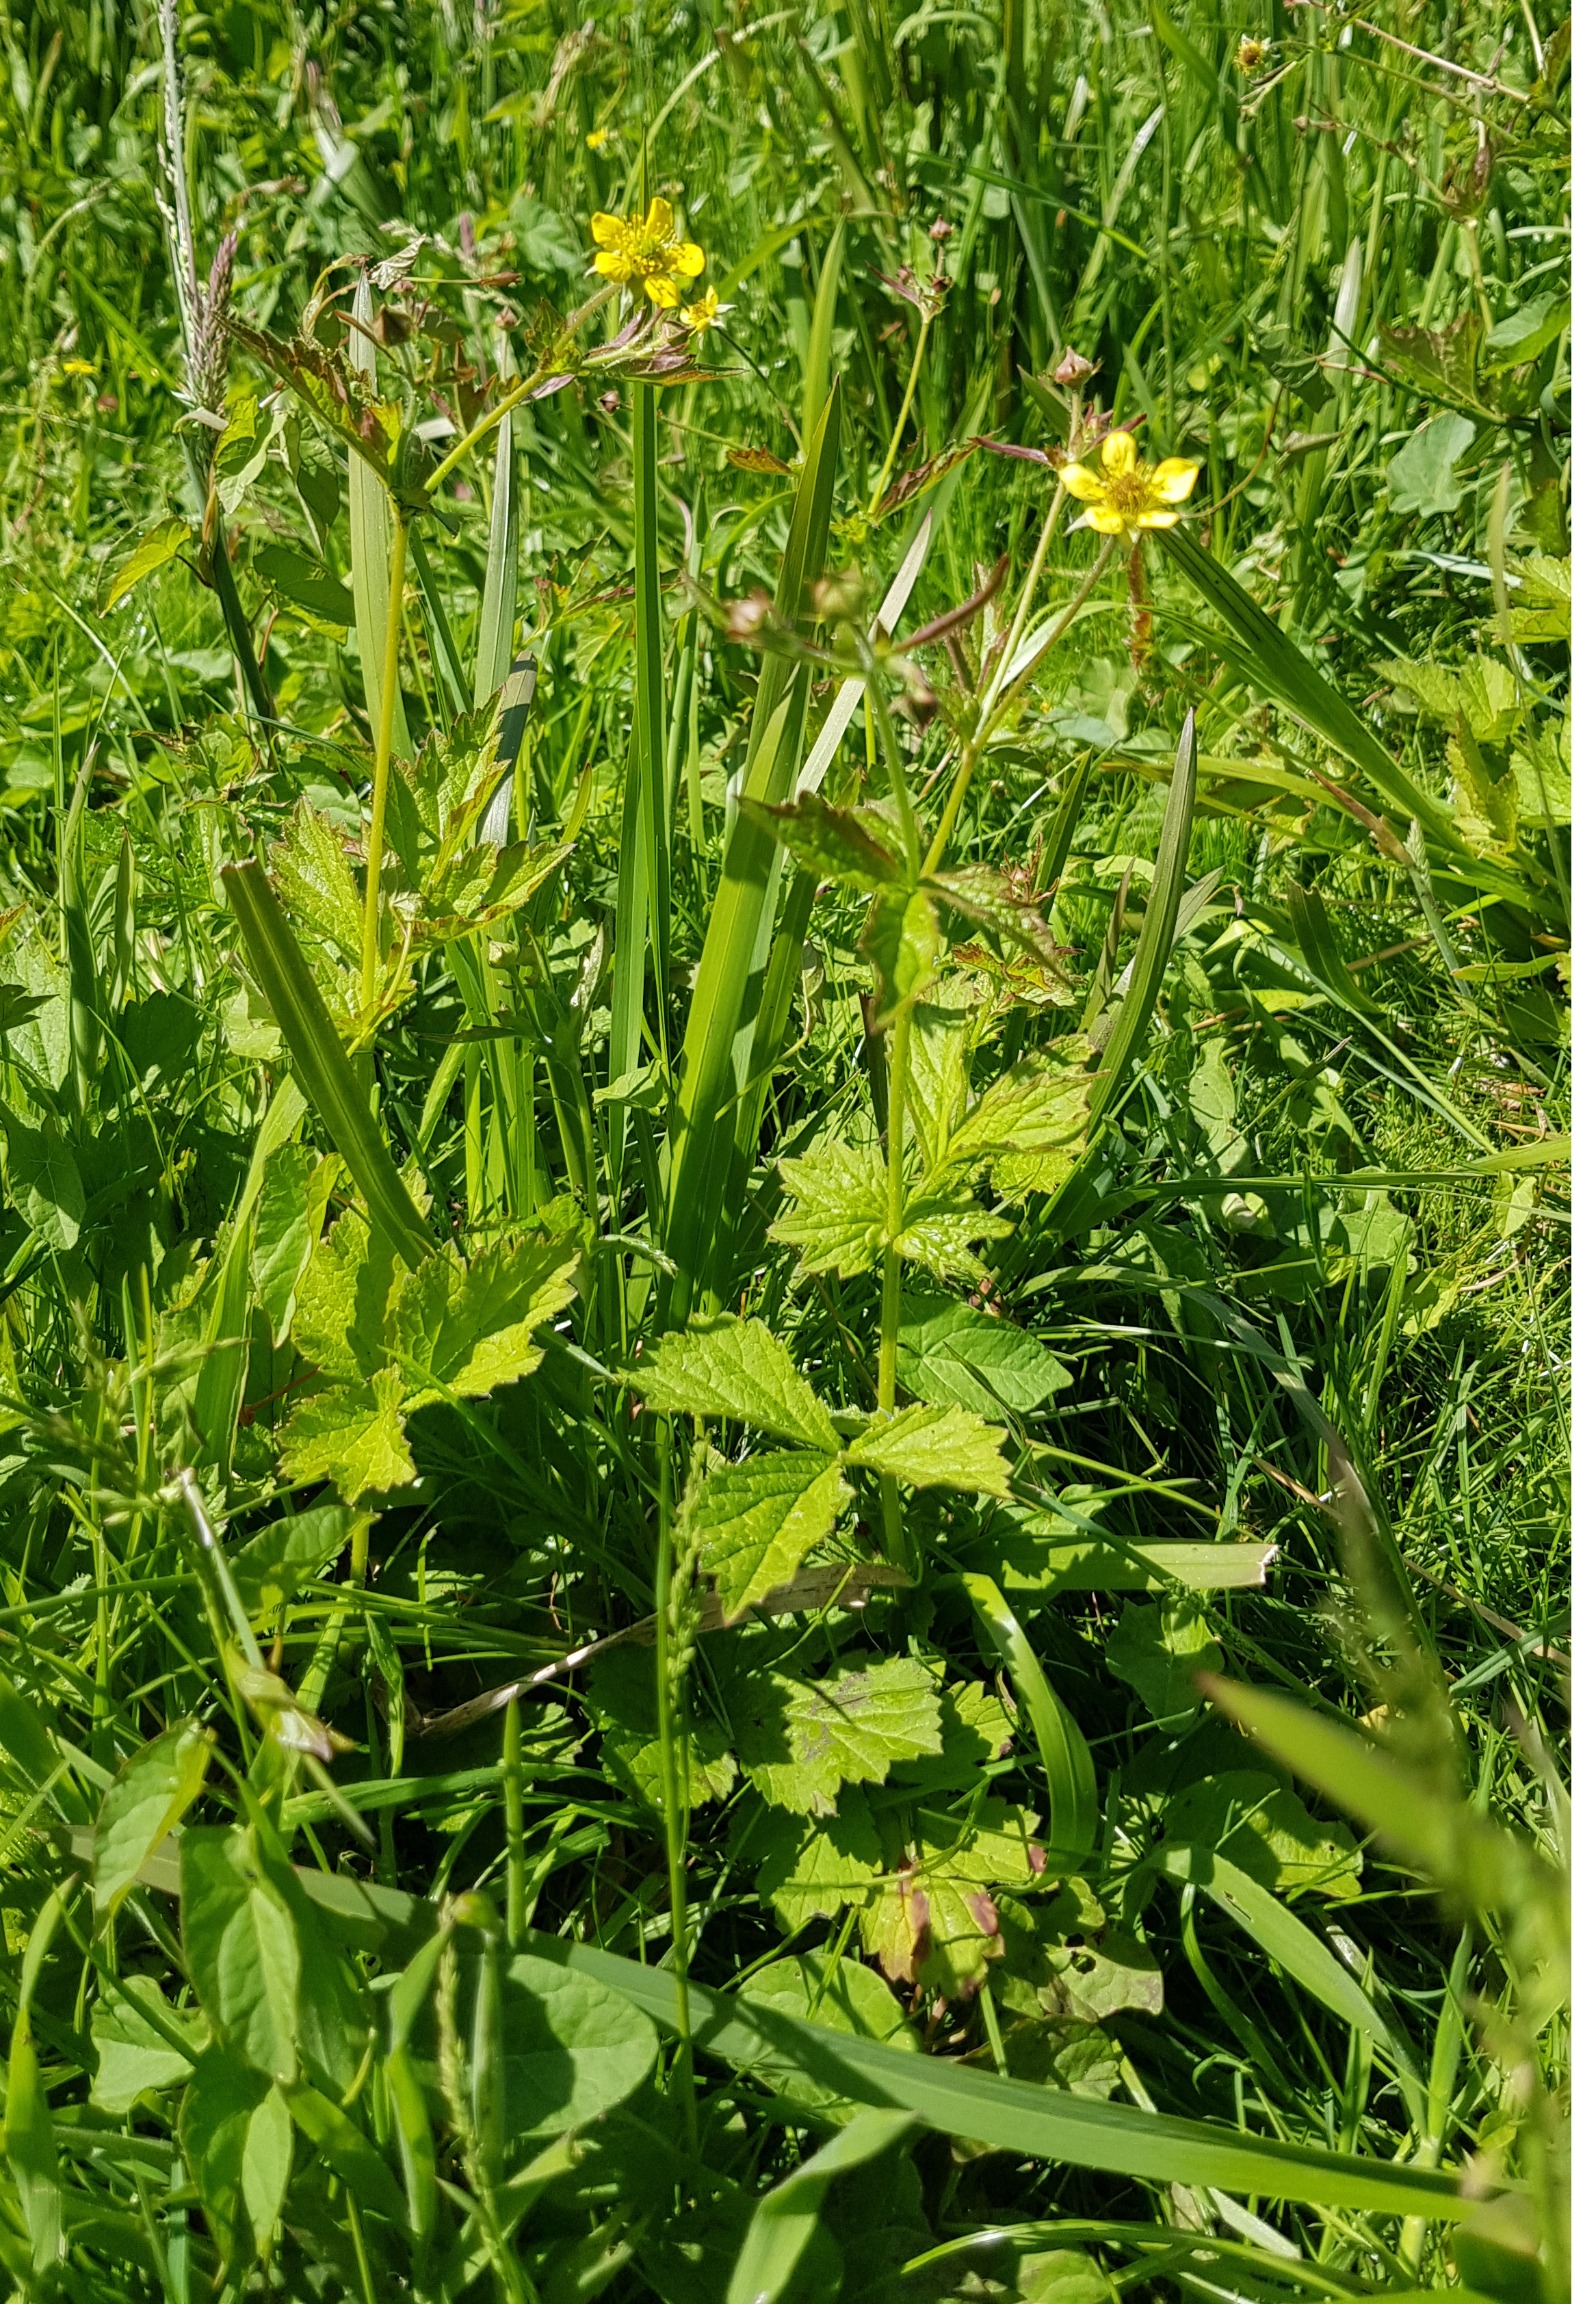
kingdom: Plantae
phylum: Tracheophyta
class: Magnoliopsida
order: Rosales
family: Rosaceae
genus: Geum
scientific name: Geum urbanum
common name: Feber-nellikerod
